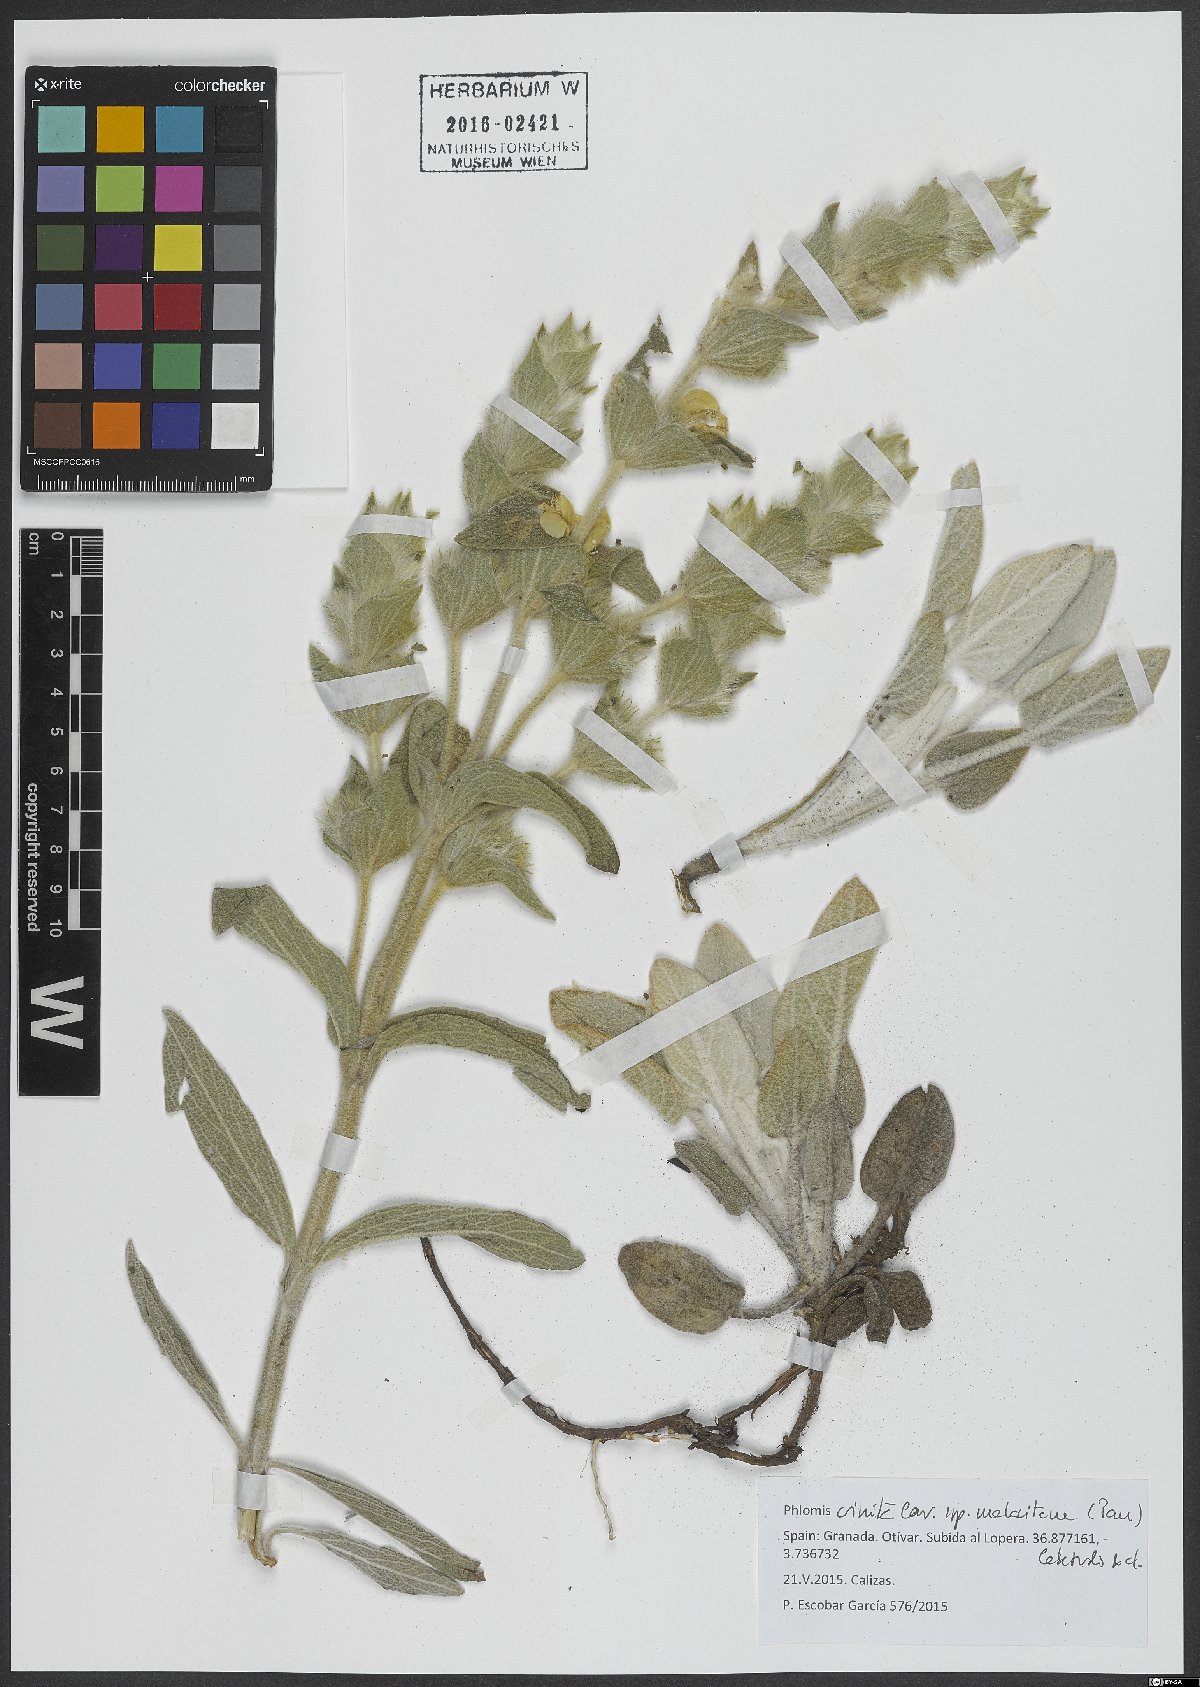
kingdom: Plantae
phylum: Tracheophyta
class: Magnoliopsida
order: Lamiales
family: Lamiaceae
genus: Phlomis
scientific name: Phlomis crinita
